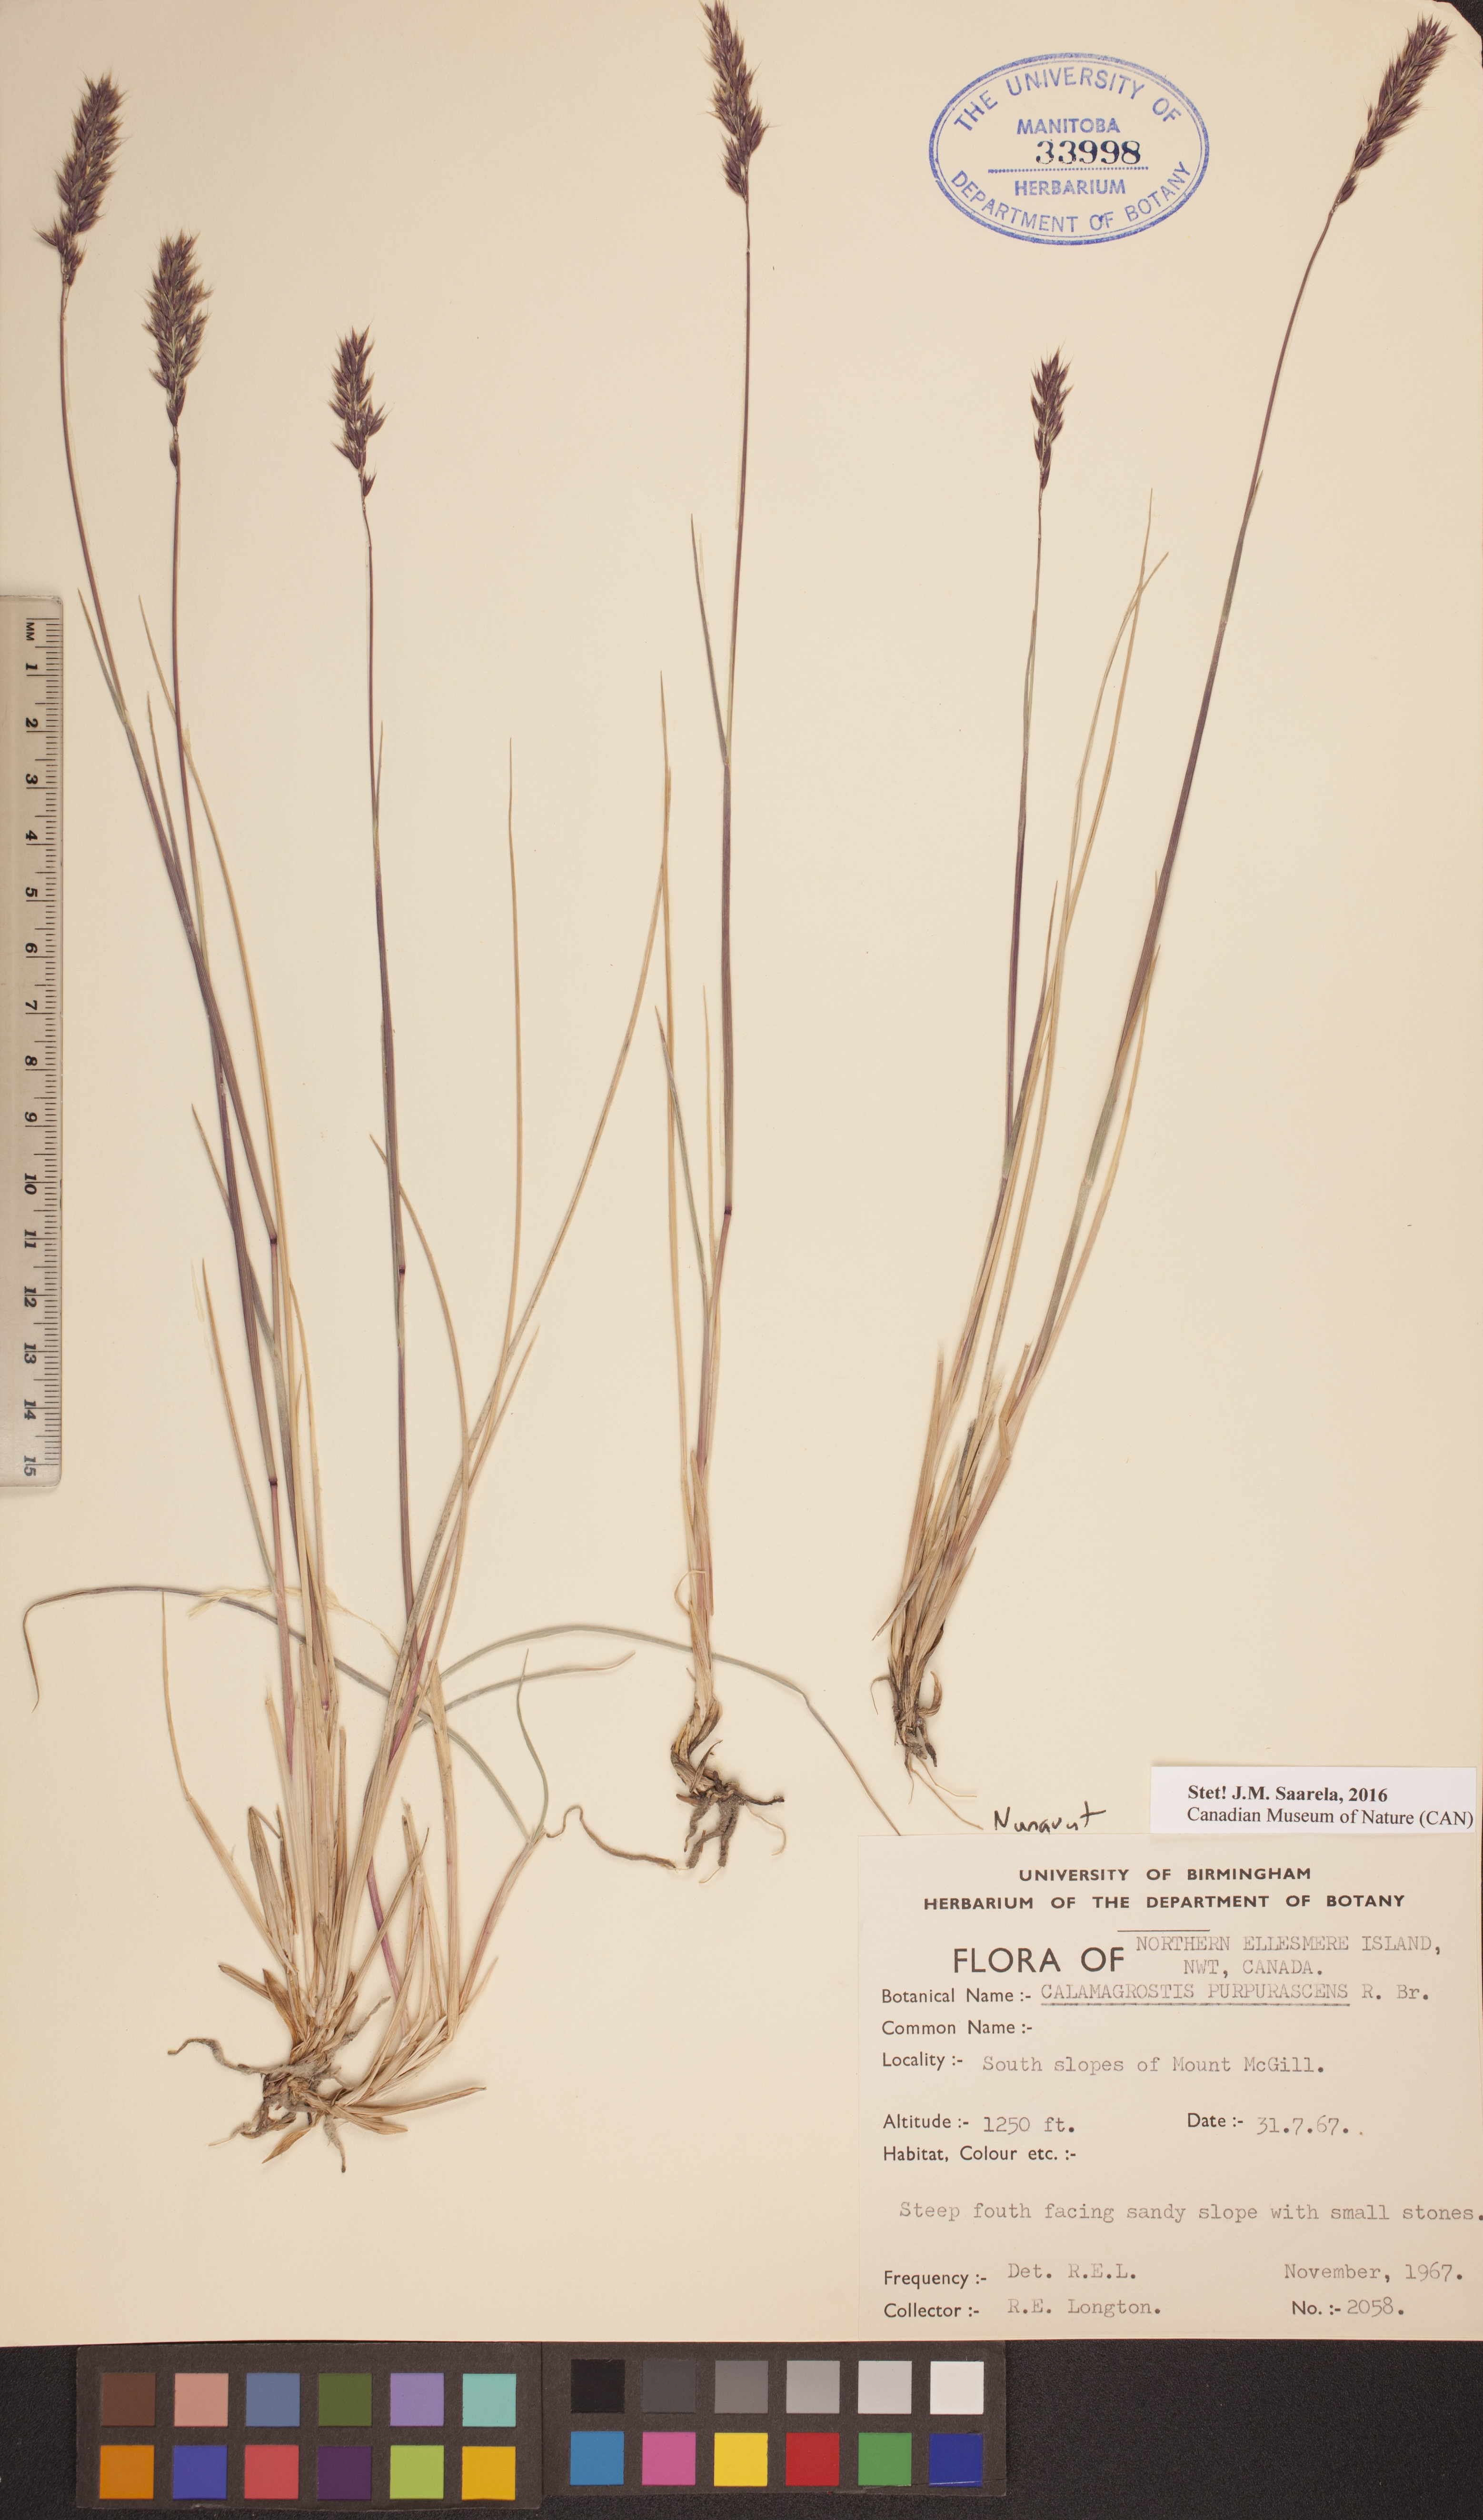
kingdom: Plantae
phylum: Tracheophyta
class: Liliopsida
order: Poales
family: Poaceae
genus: Calamagrostis
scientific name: Calamagrostis purpurascens
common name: Purple reedgrass
